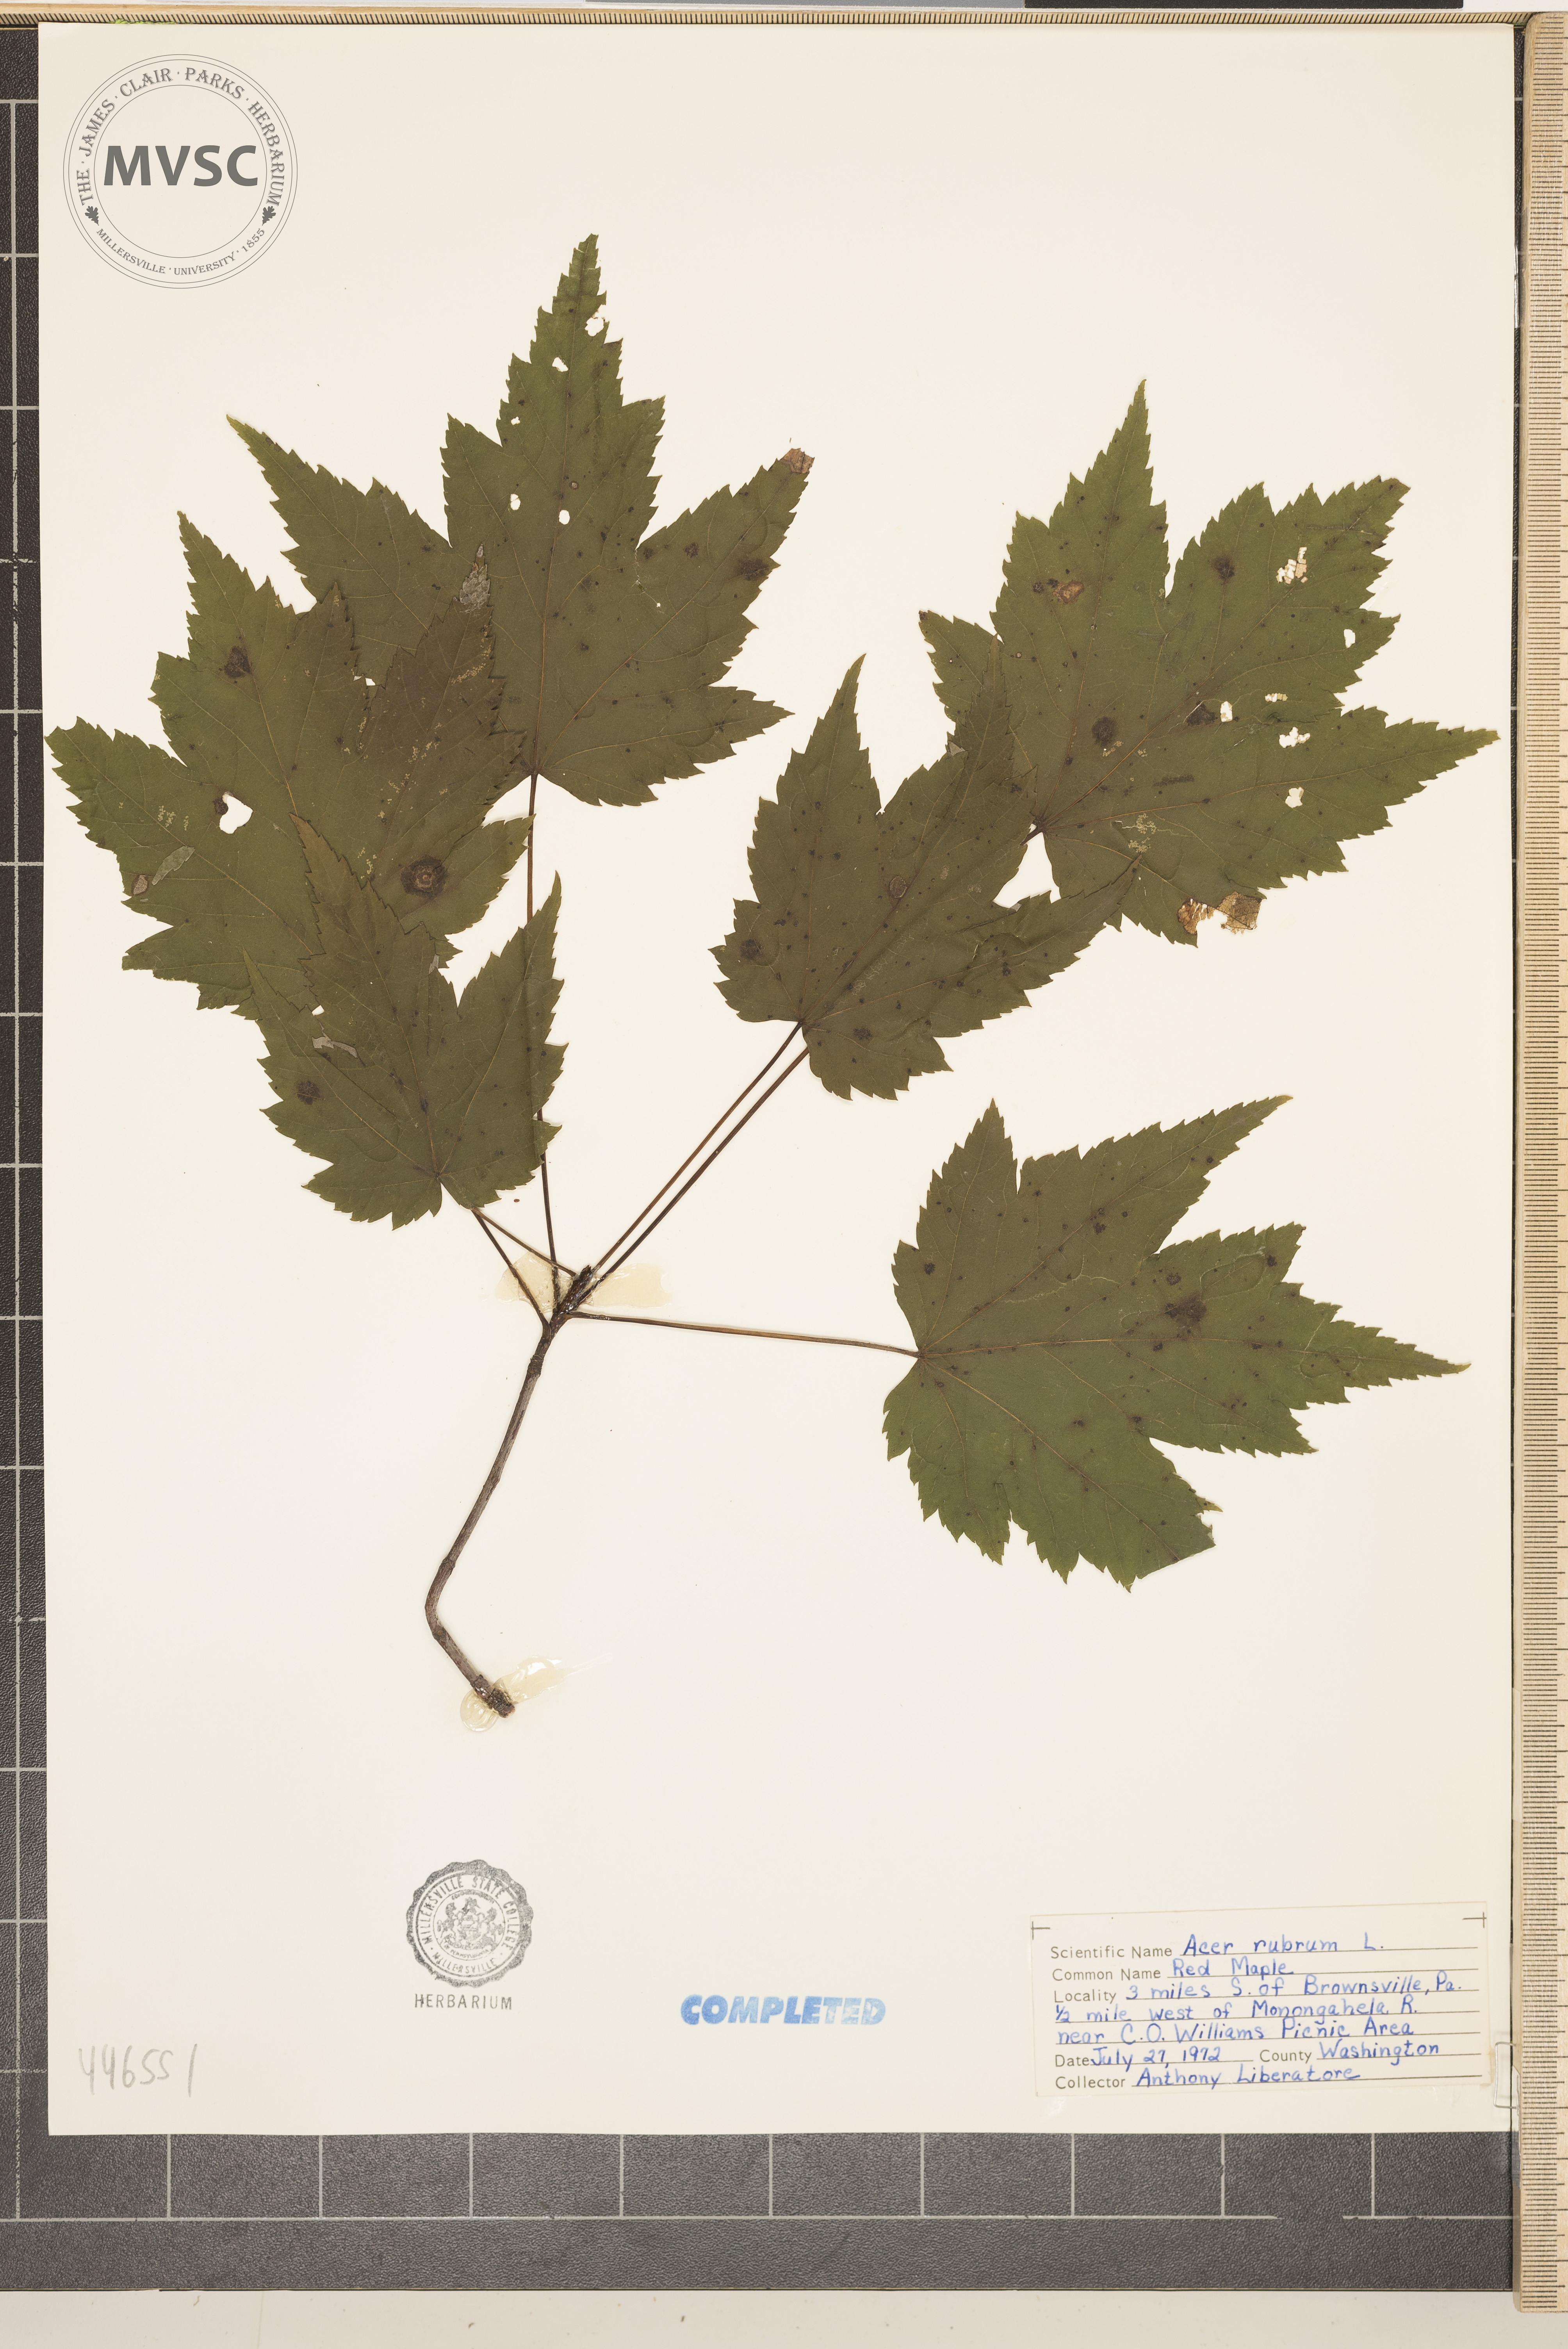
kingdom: Plantae
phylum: Tracheophyta
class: Magnoliopsida
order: Sapindales
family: Sapindaceae
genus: Acer
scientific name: Acer rubrum
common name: Red maple
